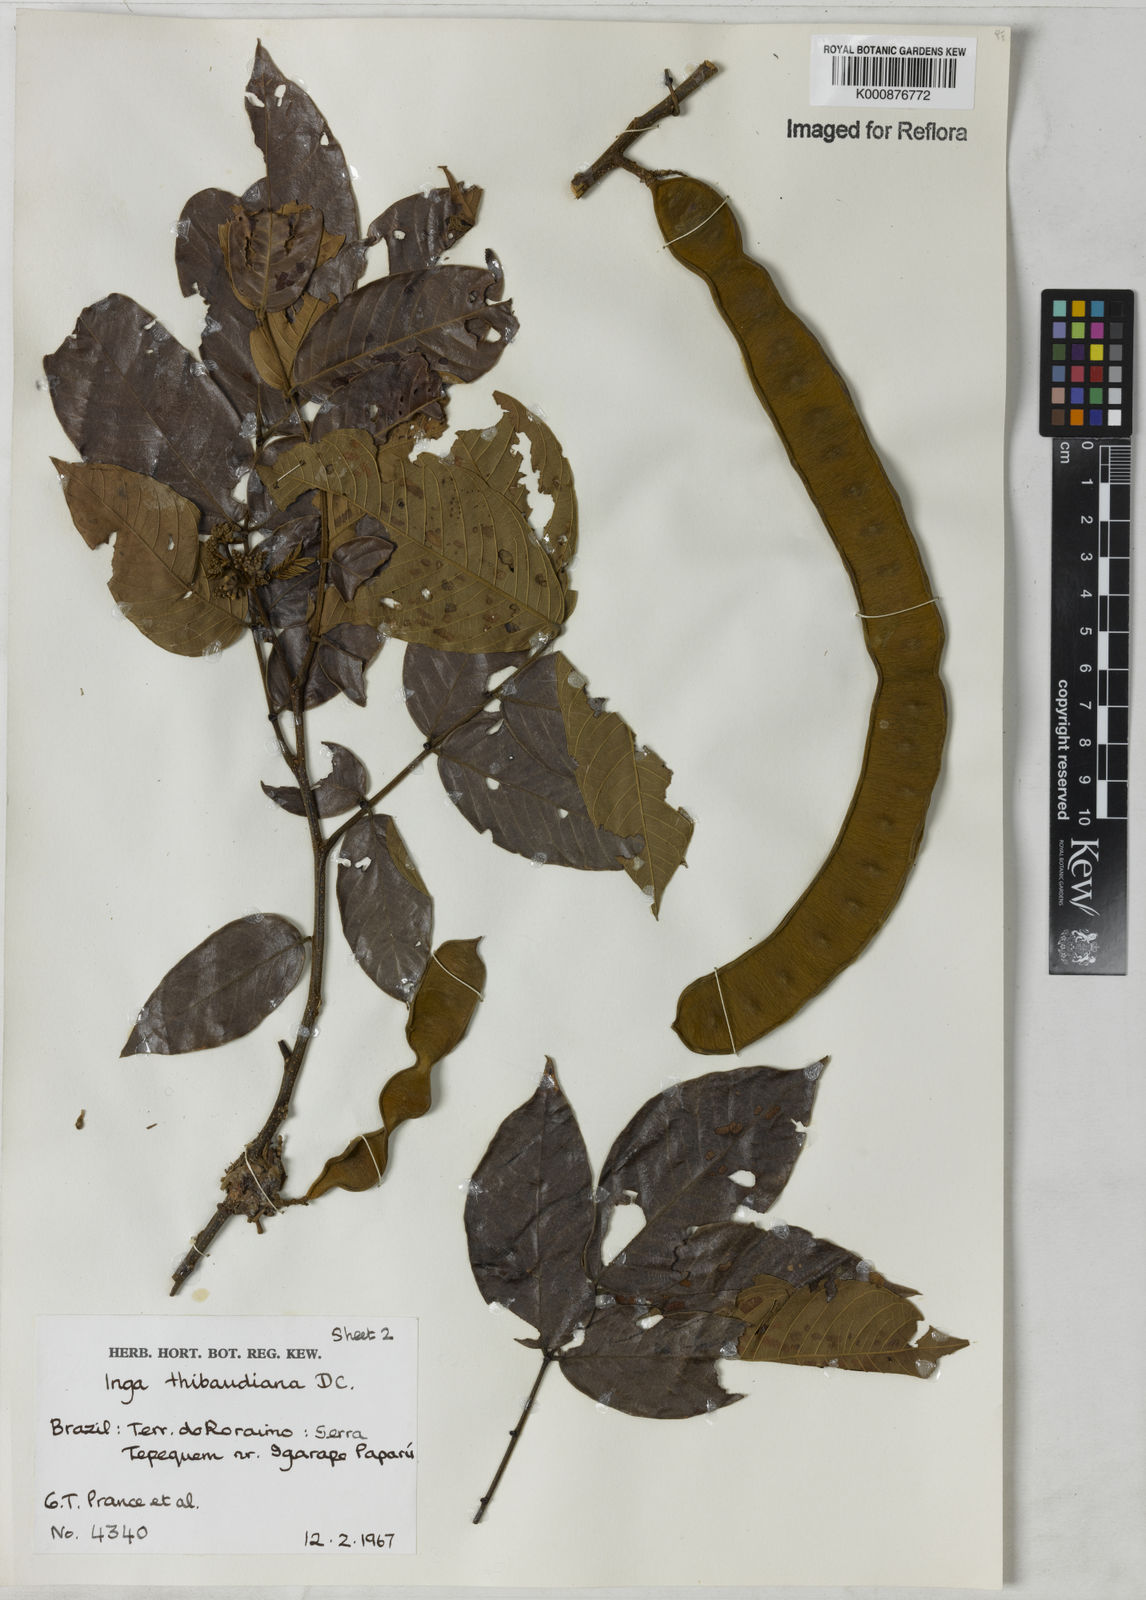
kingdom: Plantae
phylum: Tracheophyta
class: Magnoliopsida
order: Fabales
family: Fabaceae
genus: Inga
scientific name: Inga thibaudiana
